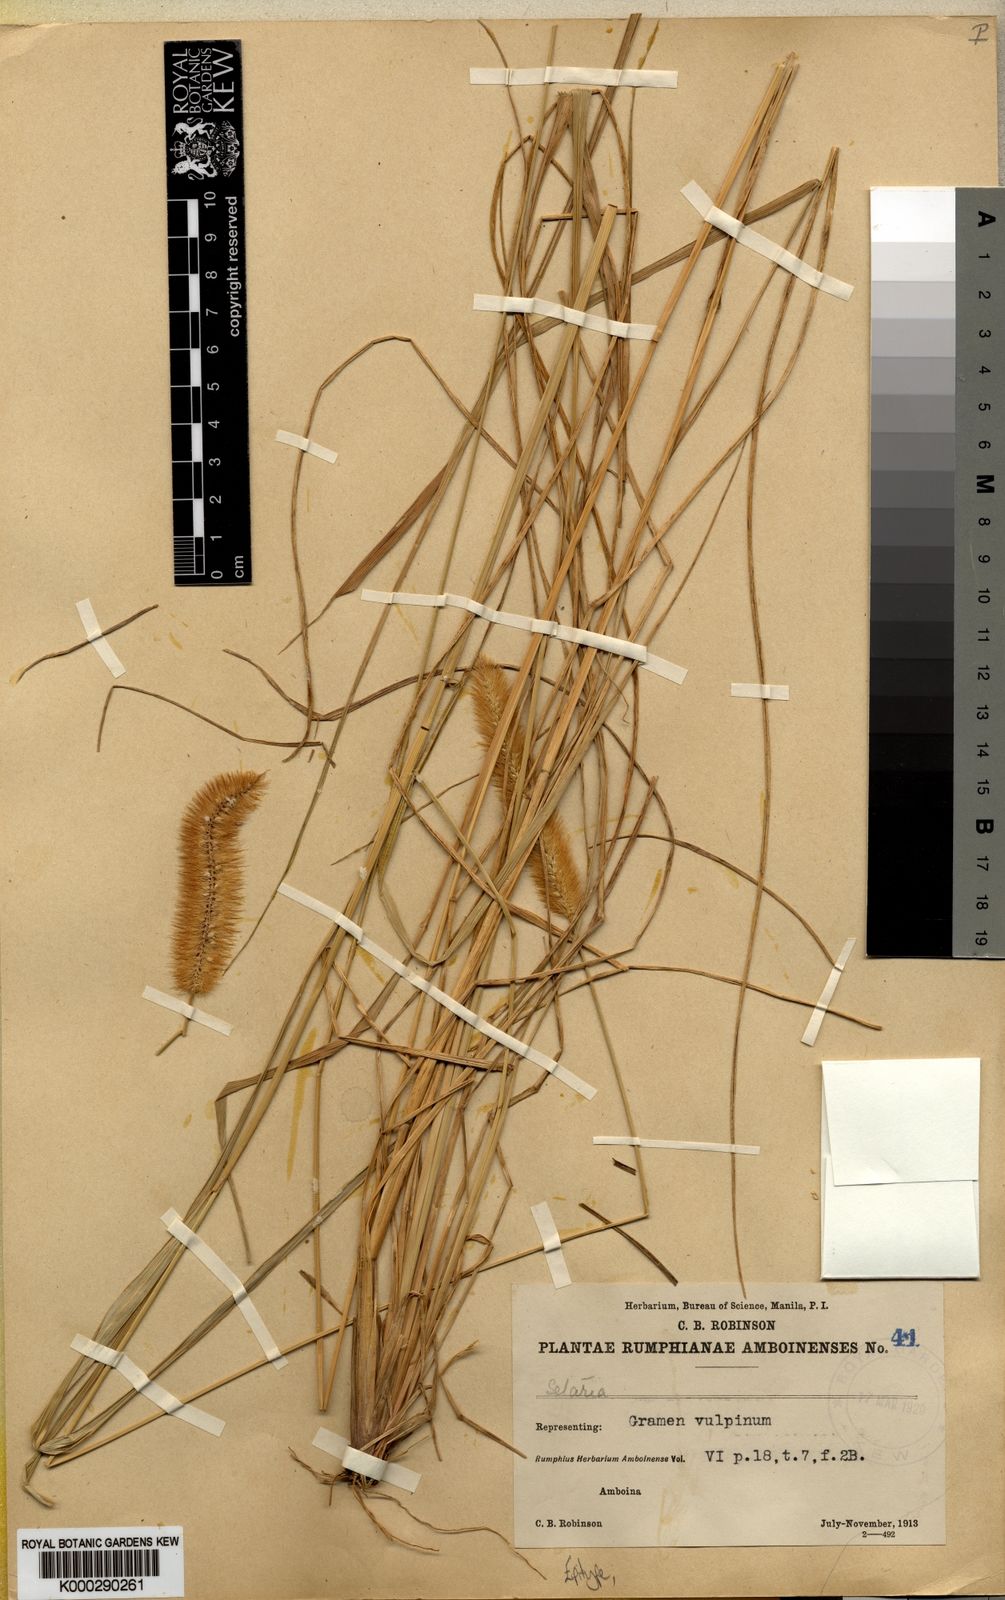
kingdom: Plantae
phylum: Tracheophyta
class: Liliopsida
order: Poales
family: Poaceae
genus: Setaria
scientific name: Setaria parviflora
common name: Knotroot bristle-grass
